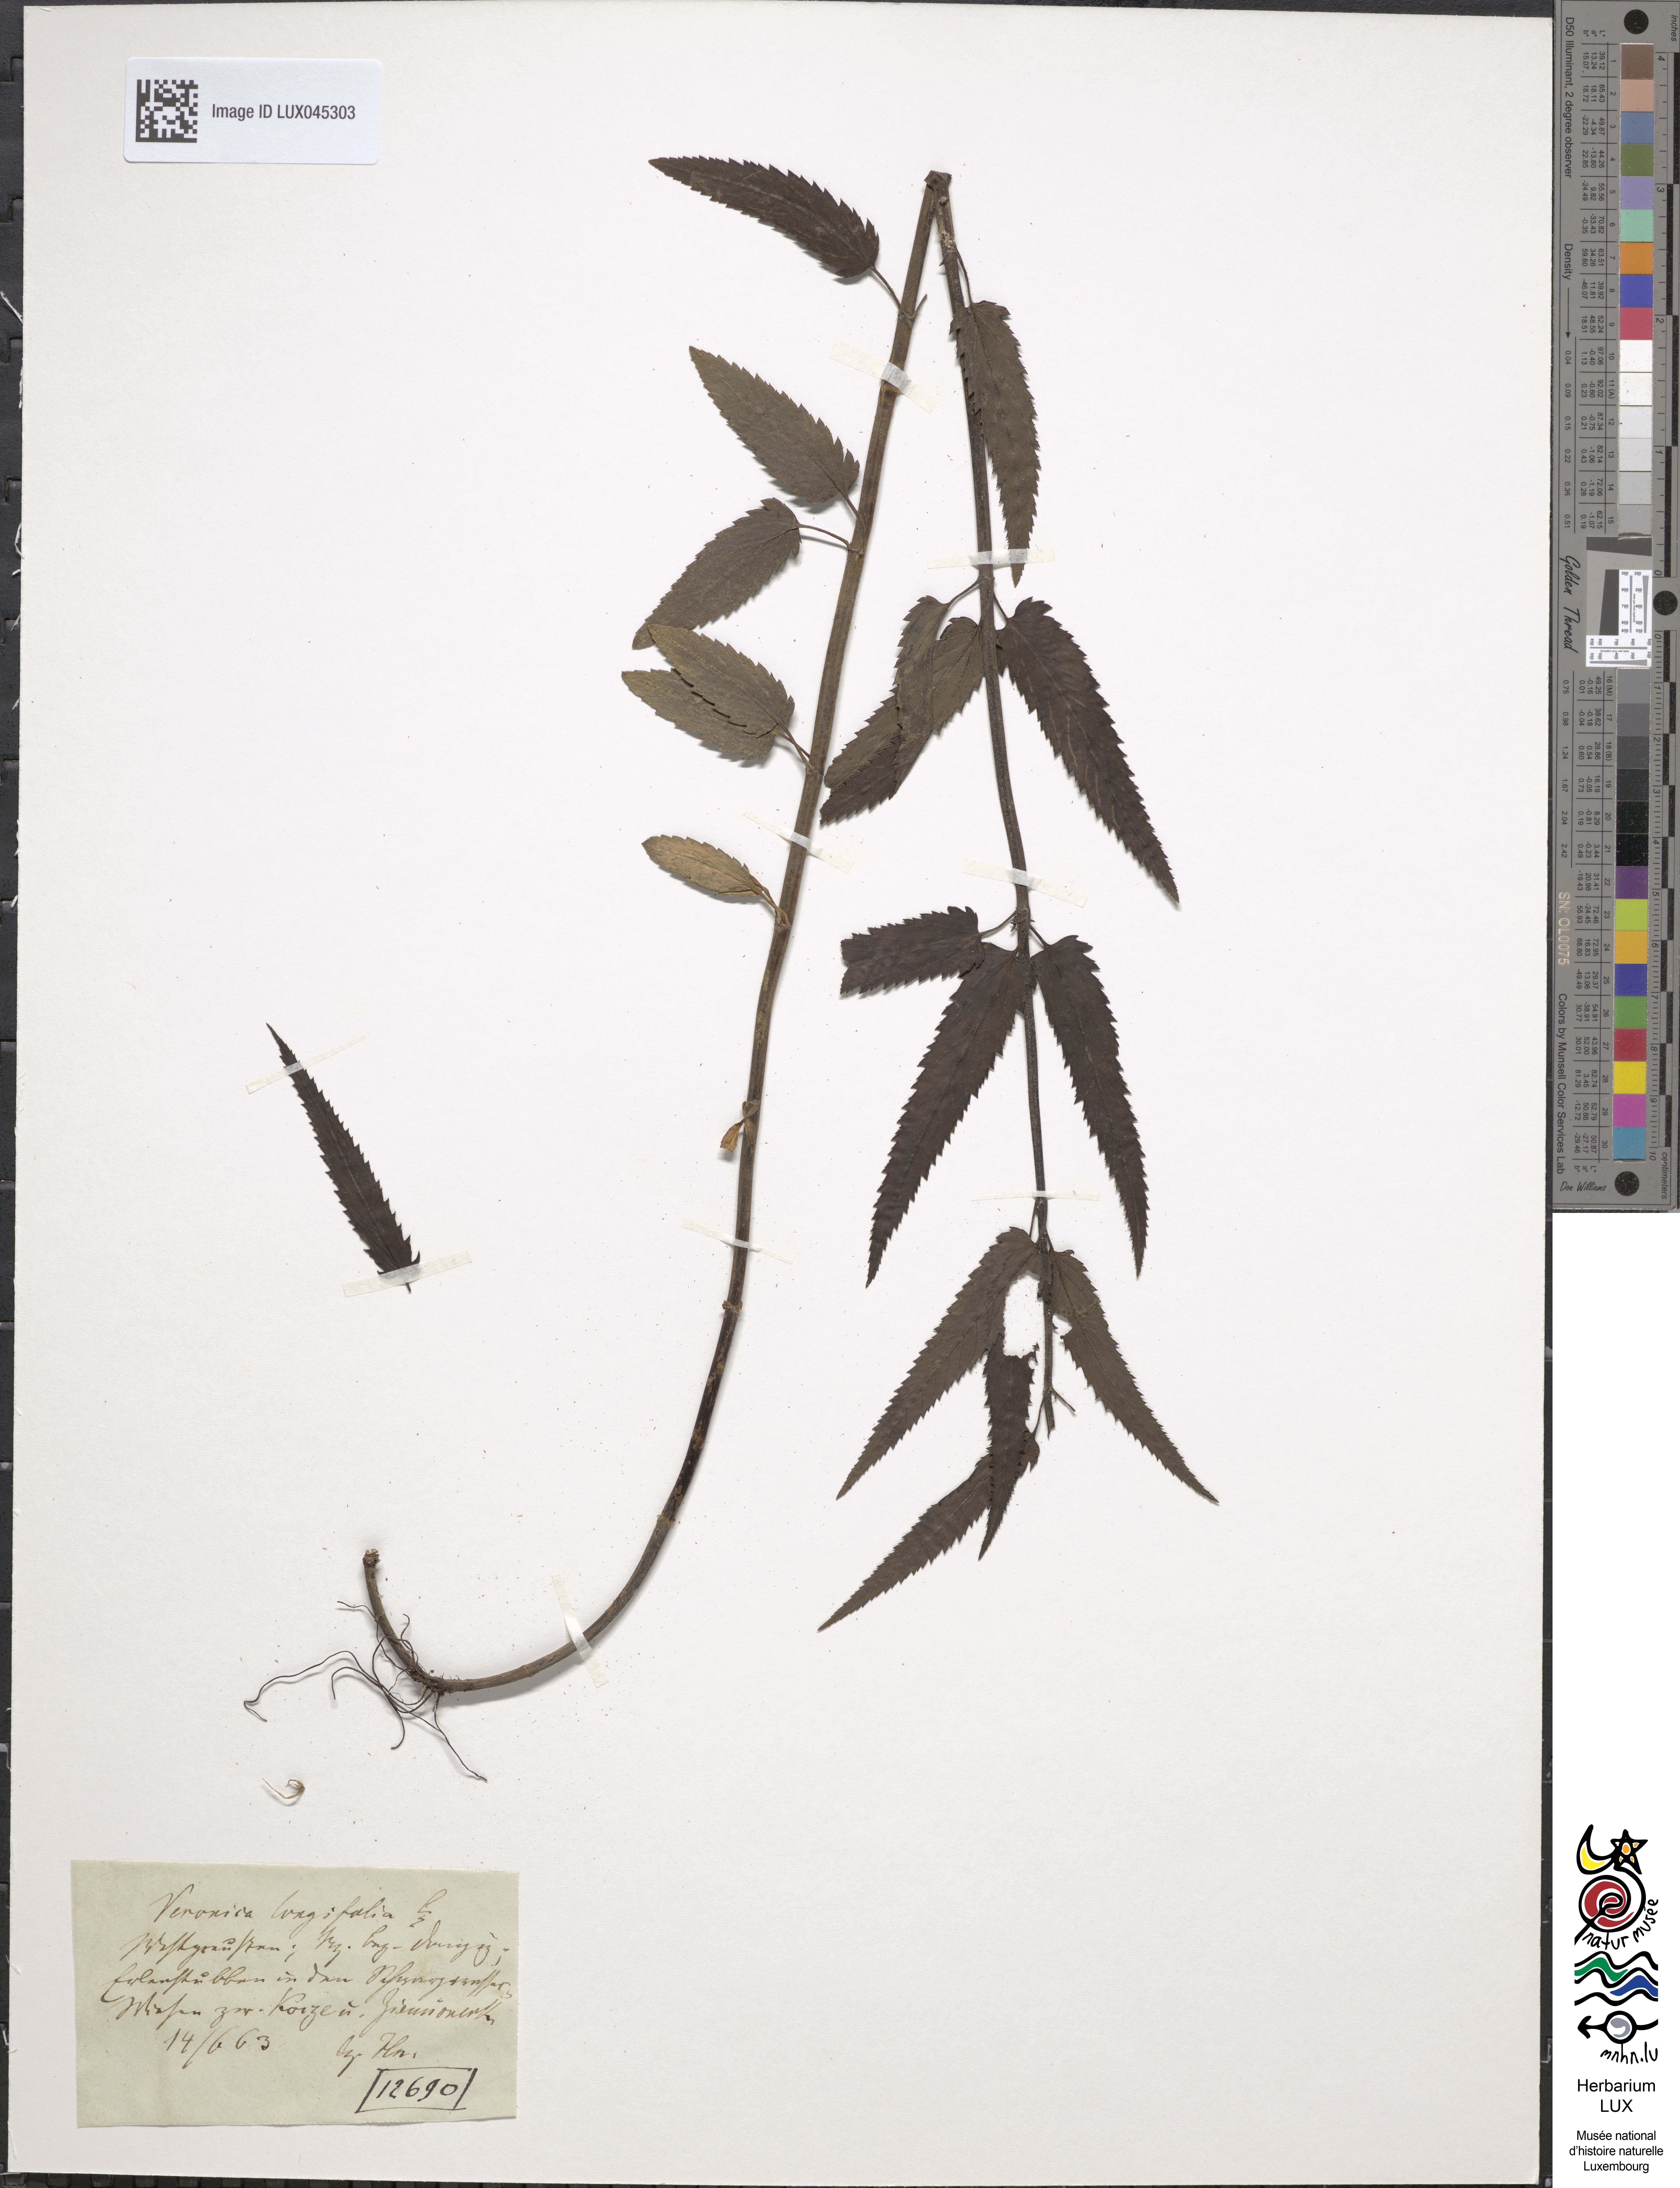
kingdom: Plantae
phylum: Tracheophyta
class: Magnoliopsida
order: Lamiales
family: Plantaginaceae
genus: Veronica
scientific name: Veronica longifolia
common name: Garden speedwell
